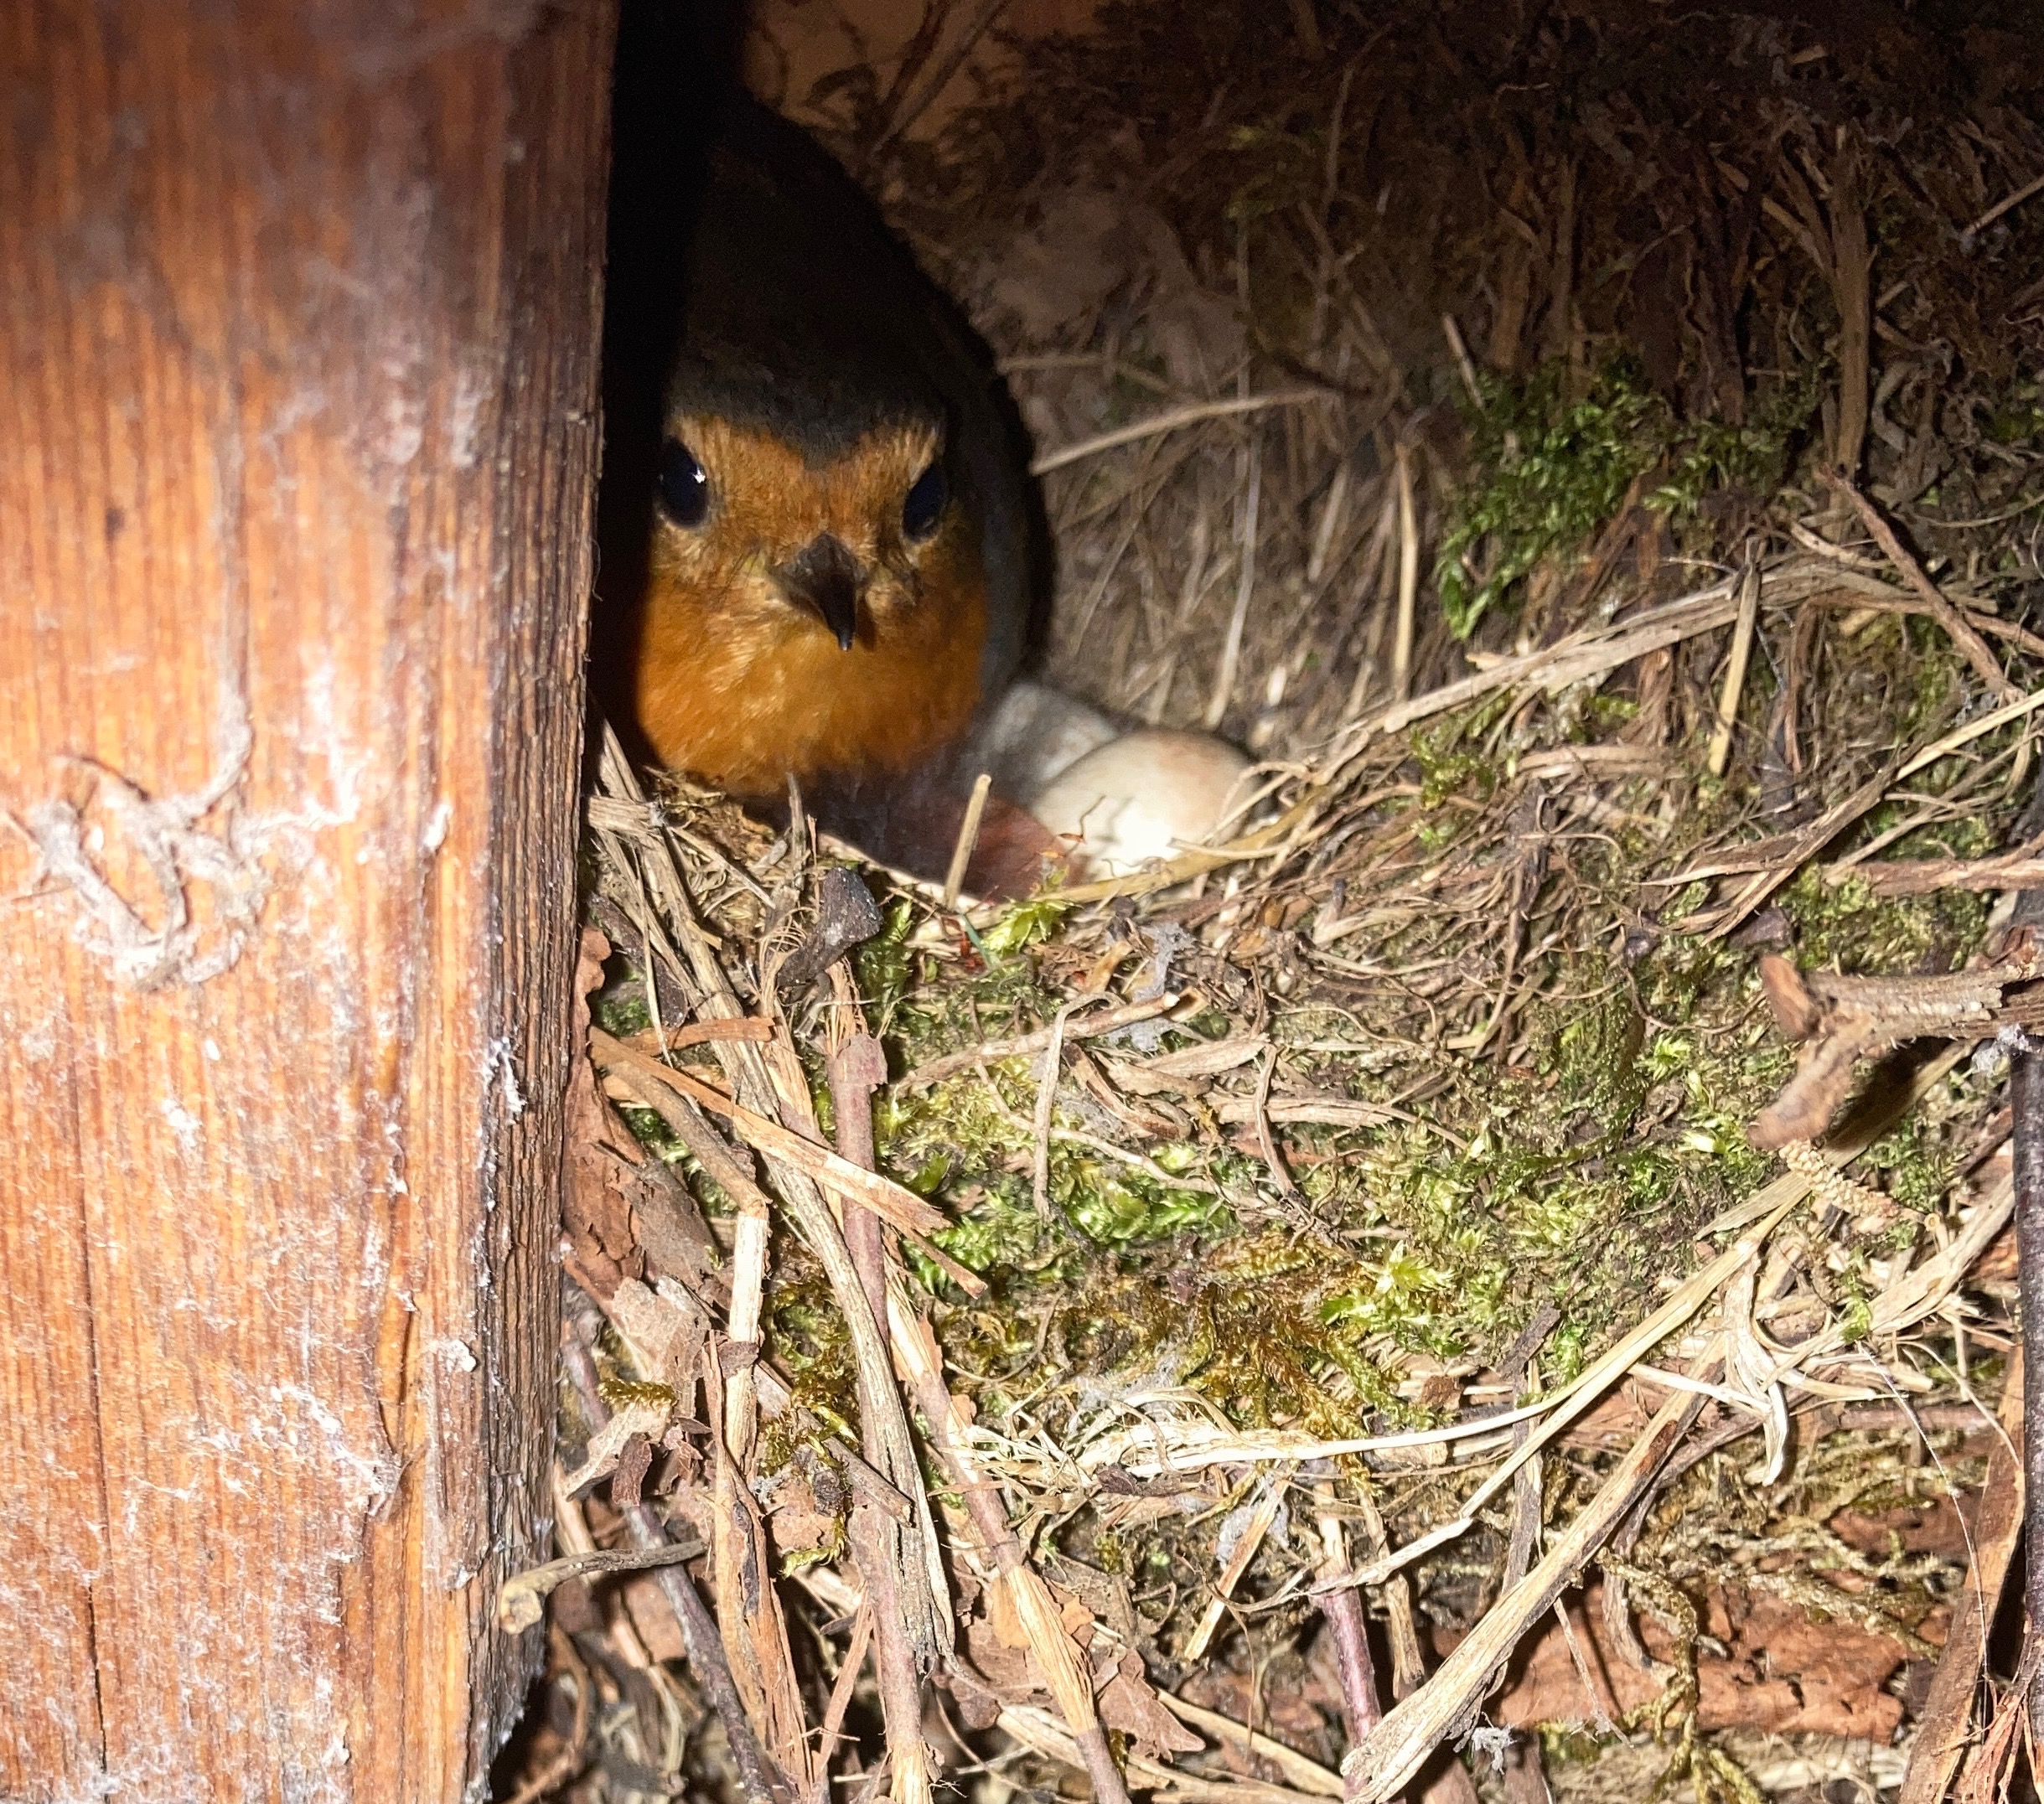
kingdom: Animalia
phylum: Chordata
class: Aves
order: Passeriformes
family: Muscicapidae
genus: Erithacus
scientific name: Erithacus rubecula
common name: Rødhals/rødkælk
